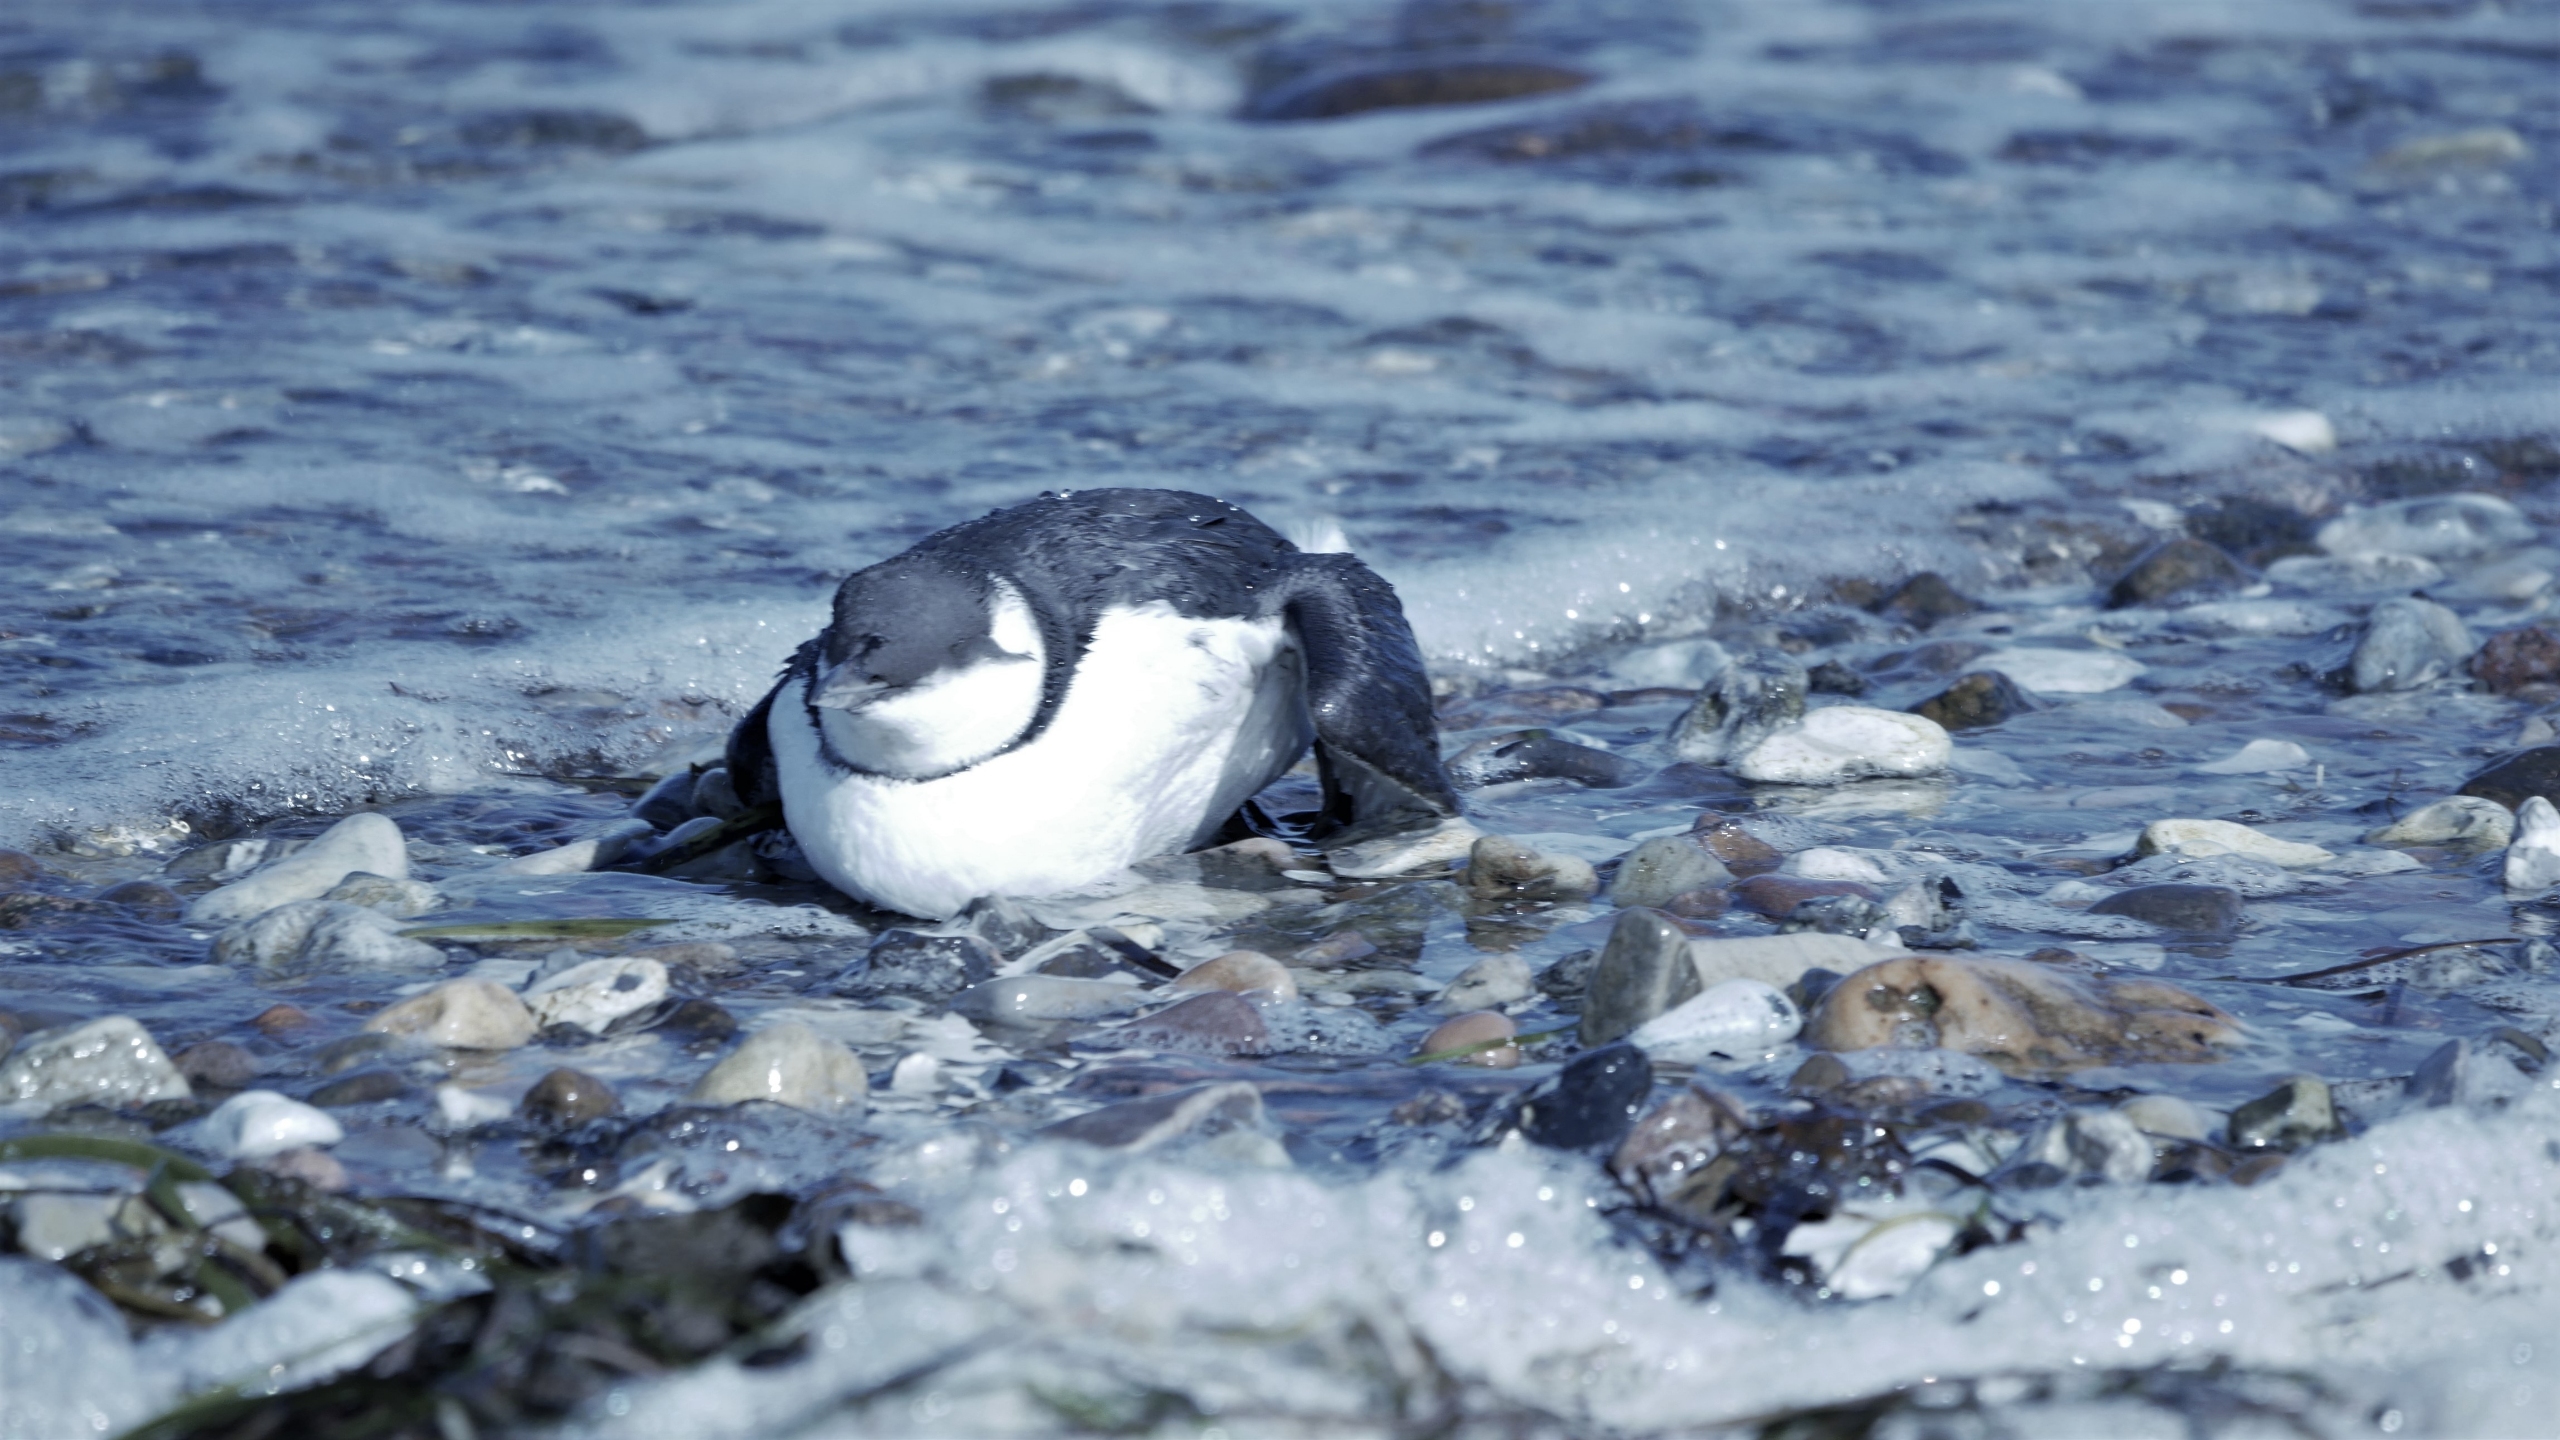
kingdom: Animalia
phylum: Chordata
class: Aves
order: Charadriiformes
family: Alcidae
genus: Uria
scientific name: Uria aalge
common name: Lomvie
